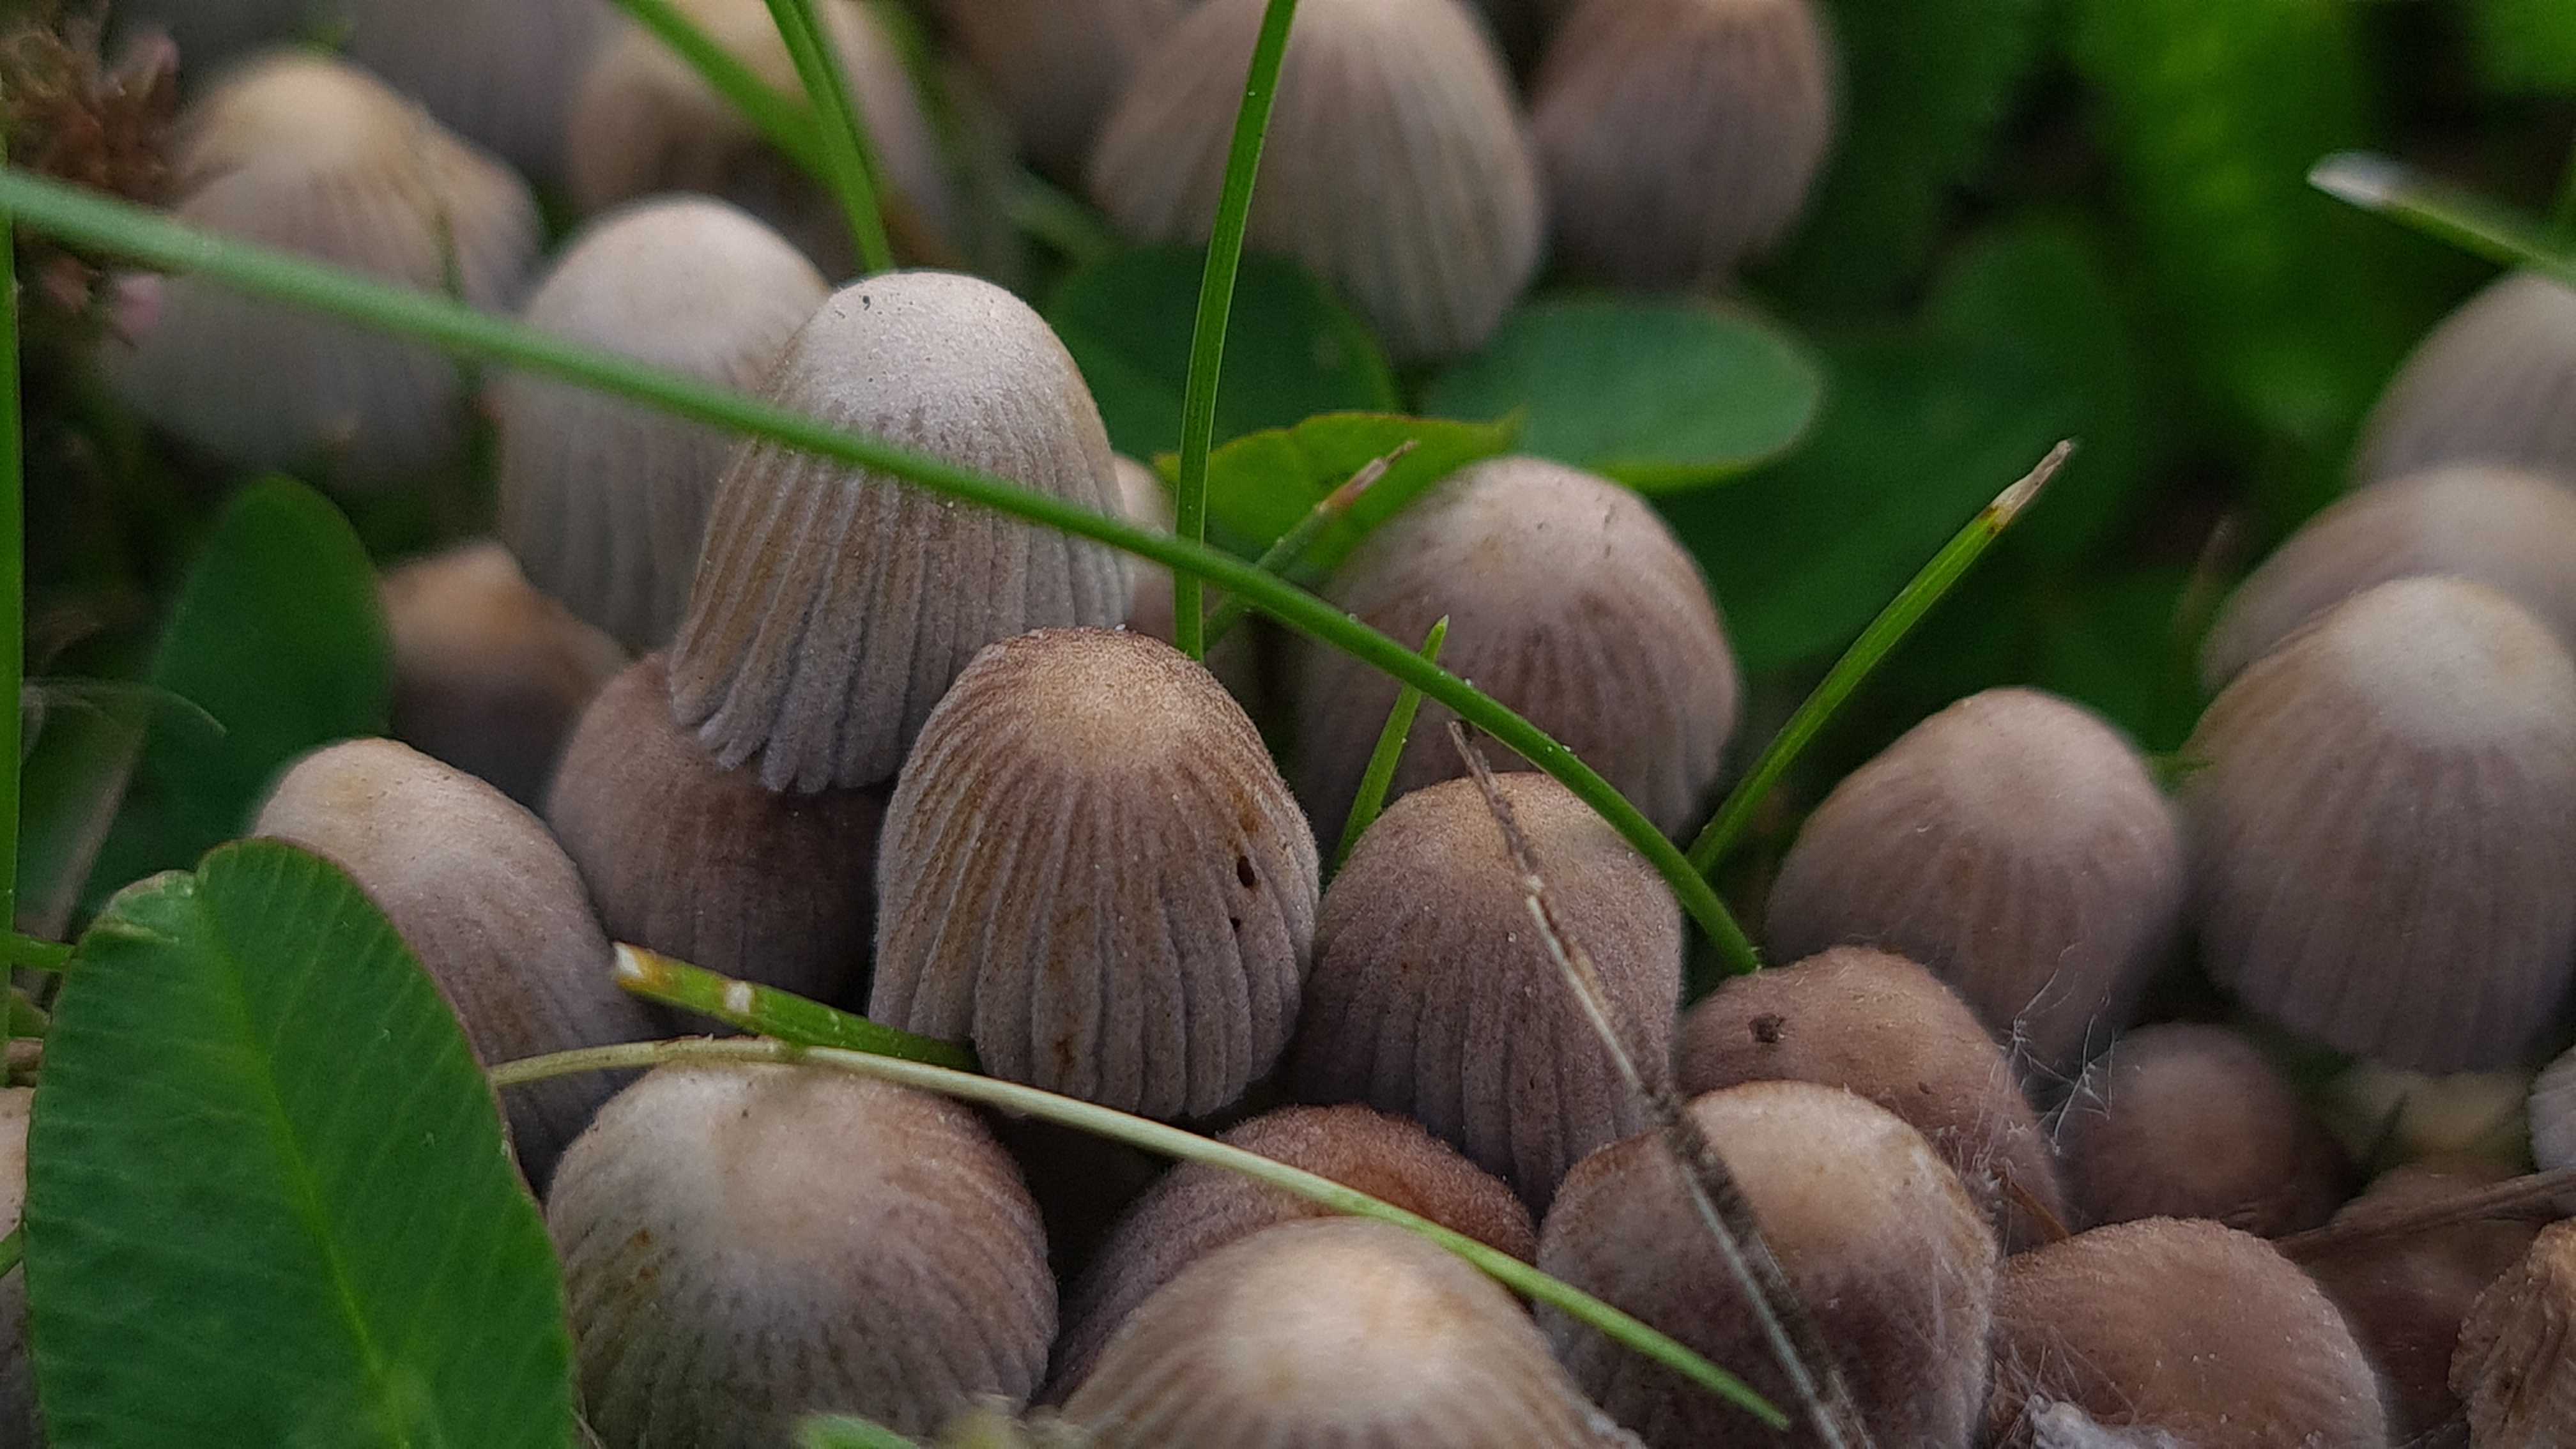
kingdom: Fungi
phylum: Basidiomycota
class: Agaricomycetes
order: Agaricales
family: Psathyrellaceae
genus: Coprinellus
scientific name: Coprinellus disseminatus
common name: bredsået blækhat
